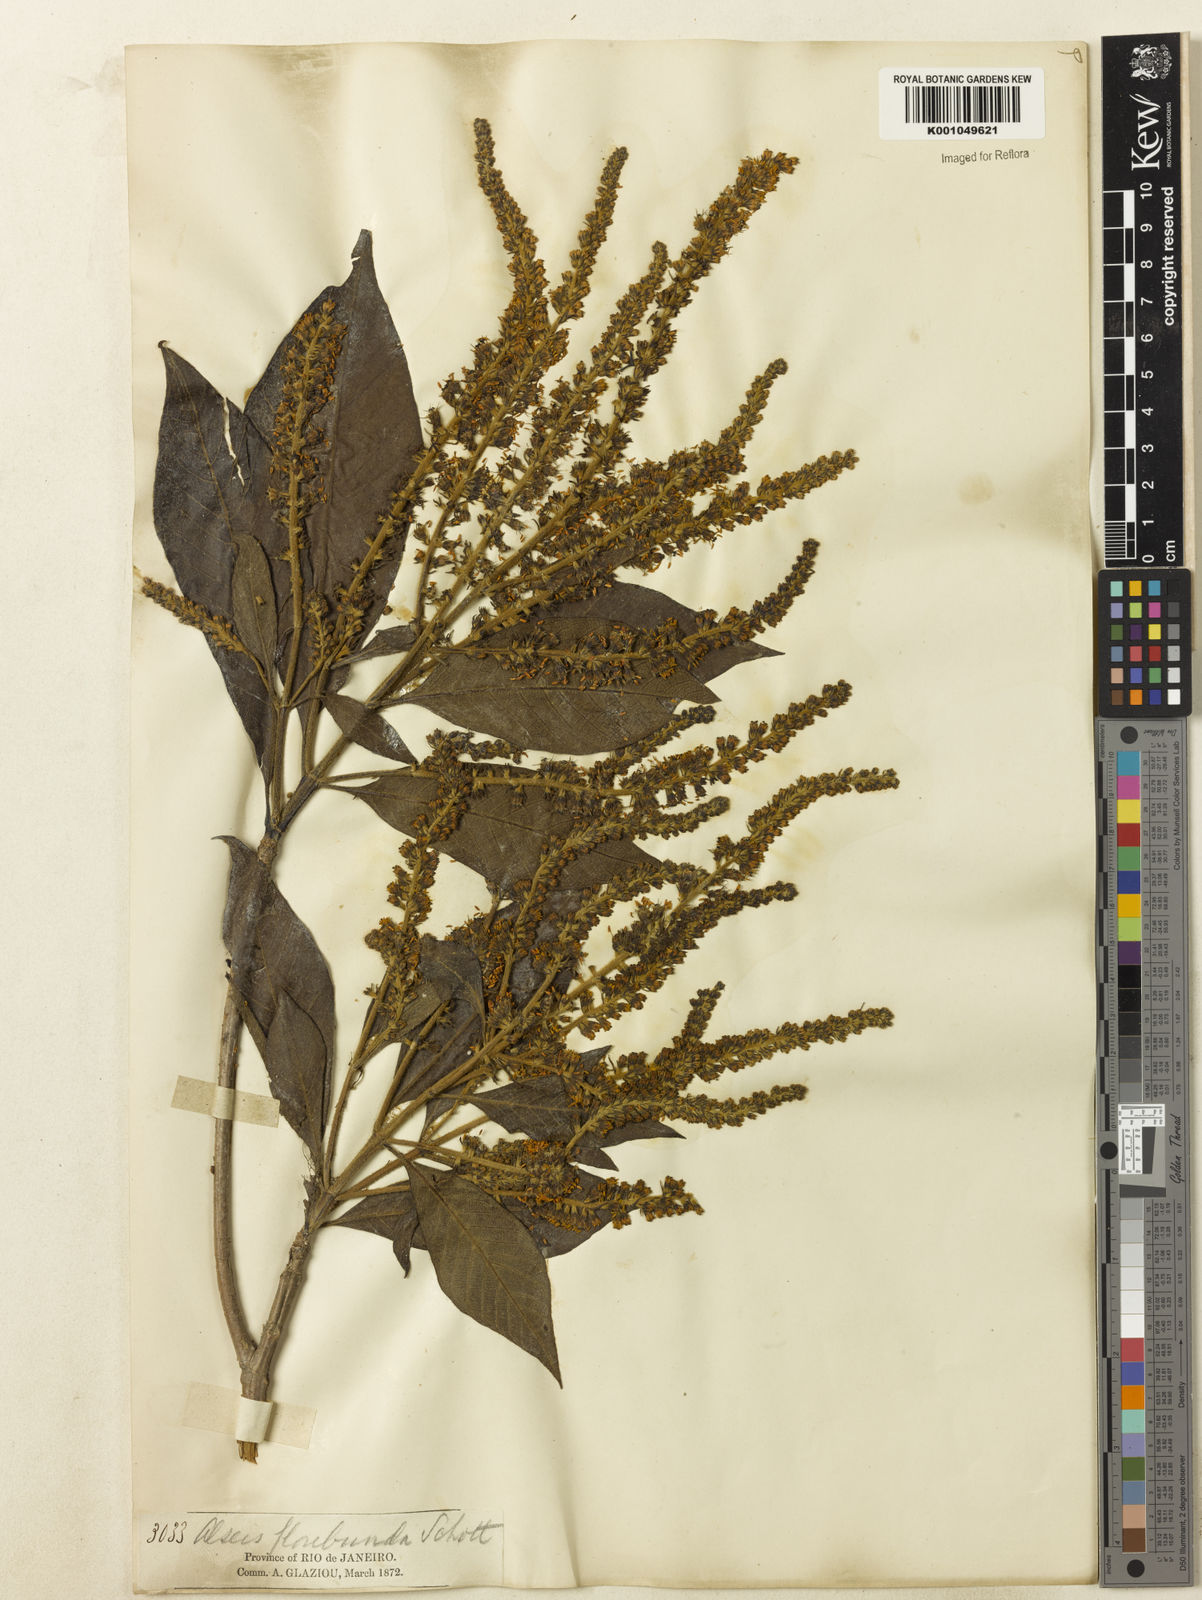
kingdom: Plantae
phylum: Tracheophyta
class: Magnoliopsida
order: Gentianales
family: Rubiaceae
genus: Alseis
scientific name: Alseis floribunda
